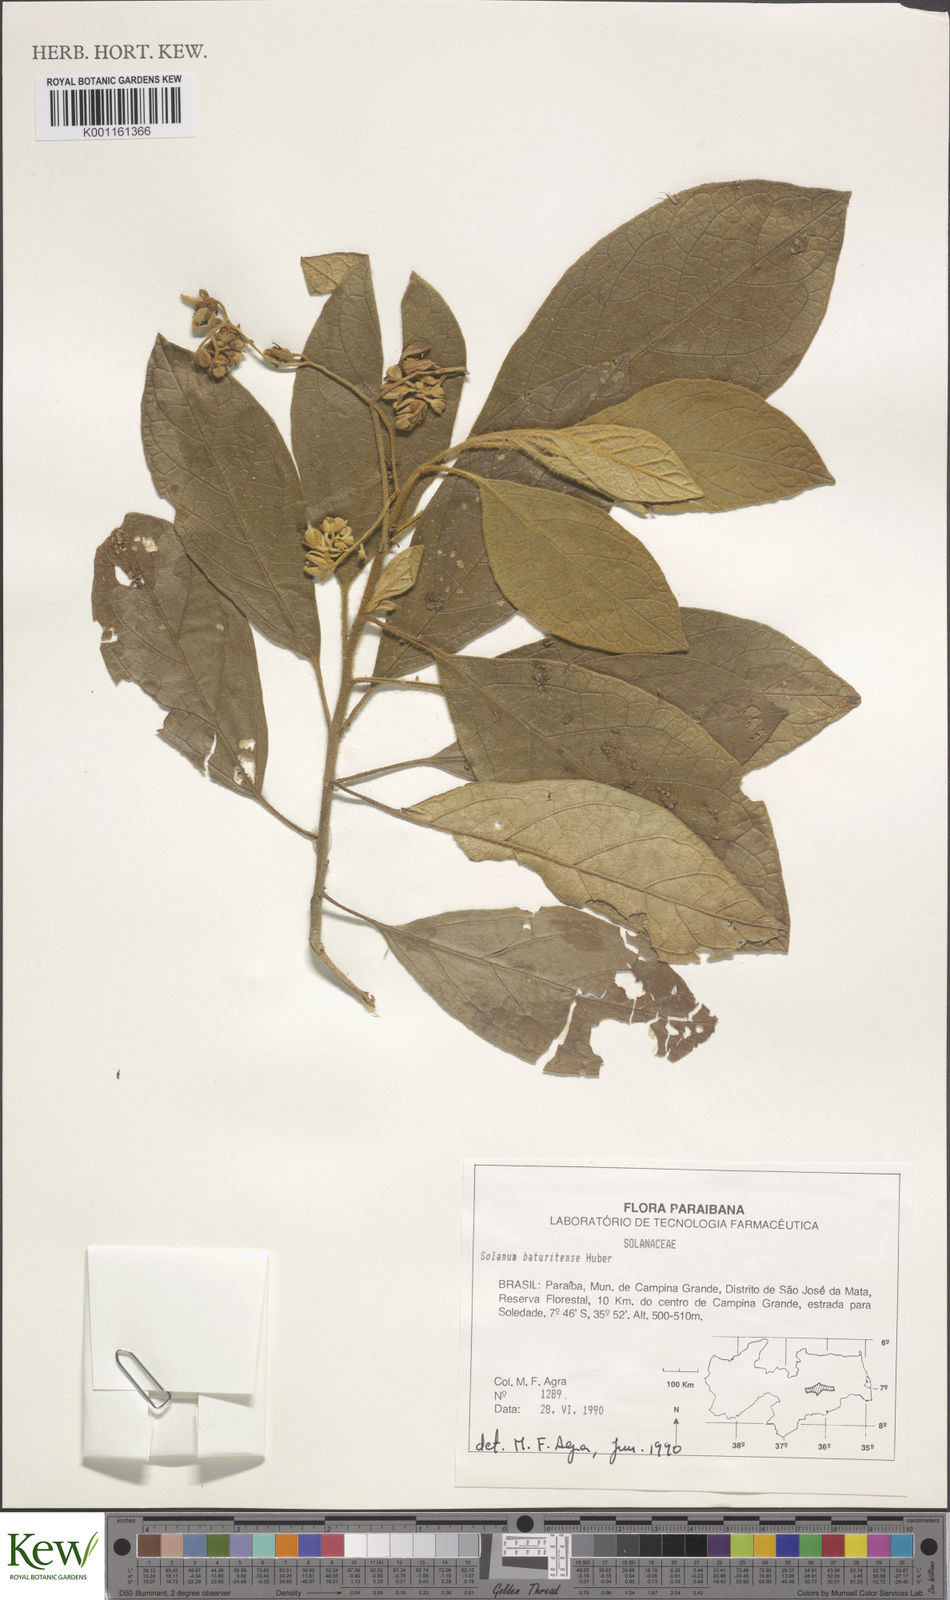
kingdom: Plantae
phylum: Tracheophyta
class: Magnoliopsida
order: Solanales
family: Solanaceae
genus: Solanum
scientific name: Solanum rhytidoandrum
